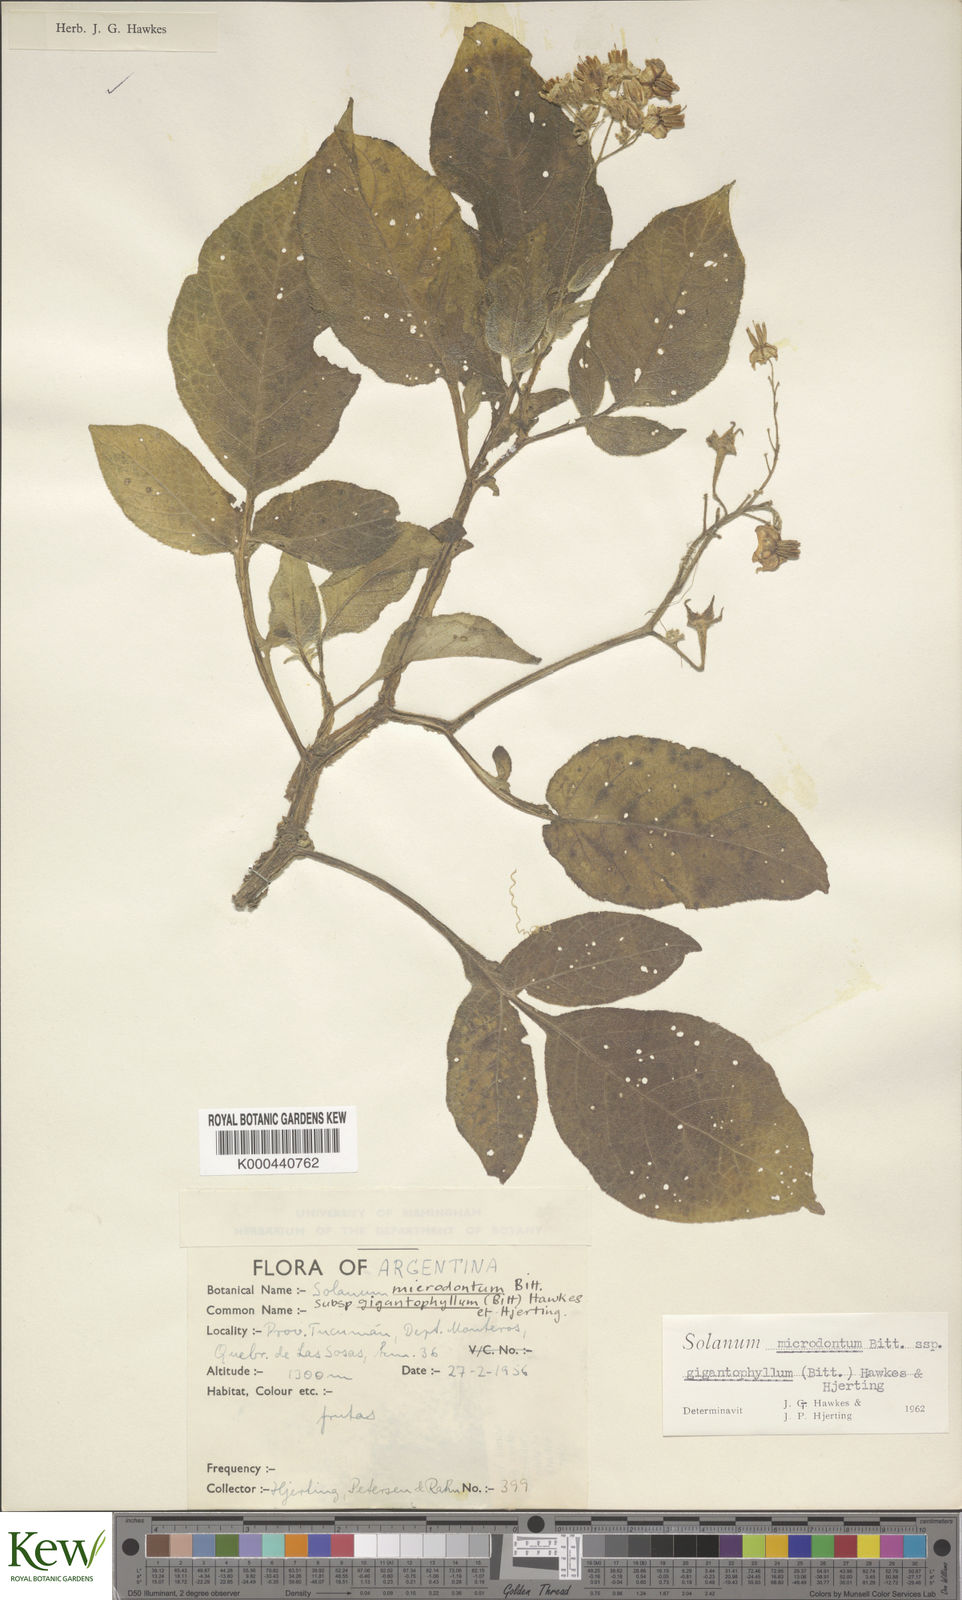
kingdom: Plantae
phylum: Tracheophyta
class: Magnoliopsida
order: Solanales
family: Solanaceae
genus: Solanum
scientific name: Solanum microdontum
